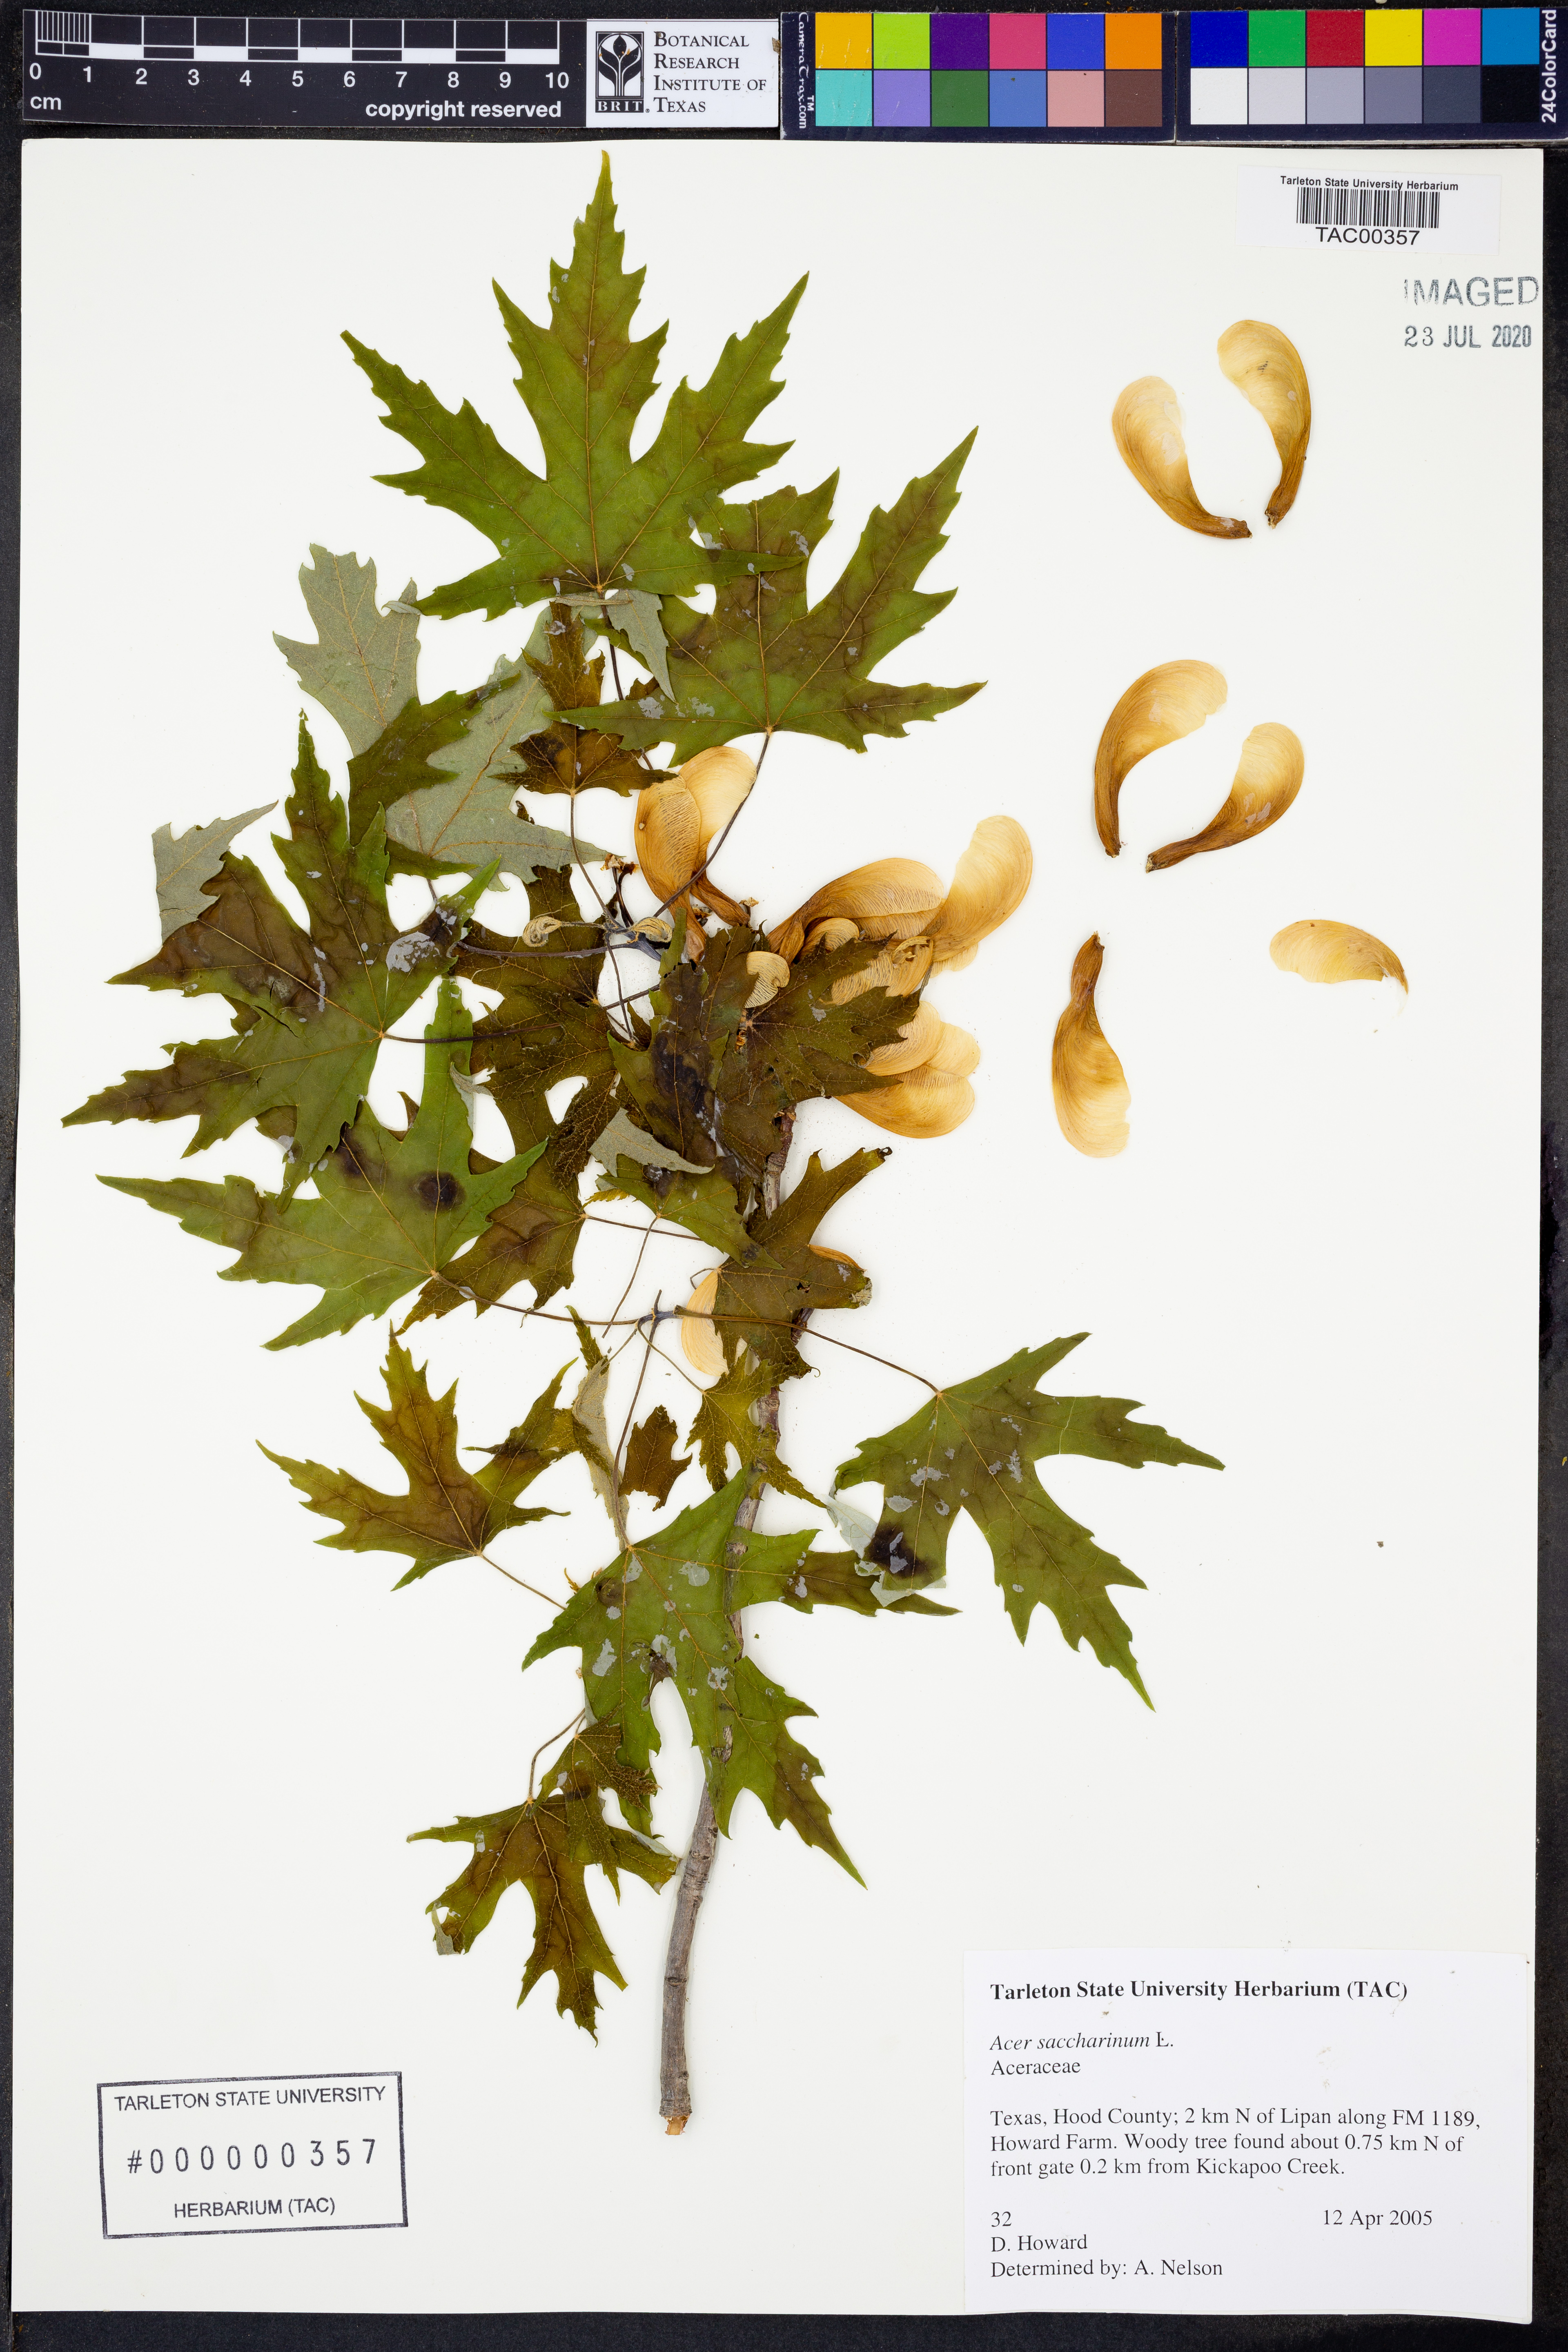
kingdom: Plantae
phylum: Tracheophyta
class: Magnoliopsida
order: Sapindales
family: Sapindaceae
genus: Acer
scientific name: Acer saccharinum
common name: Silver maple
